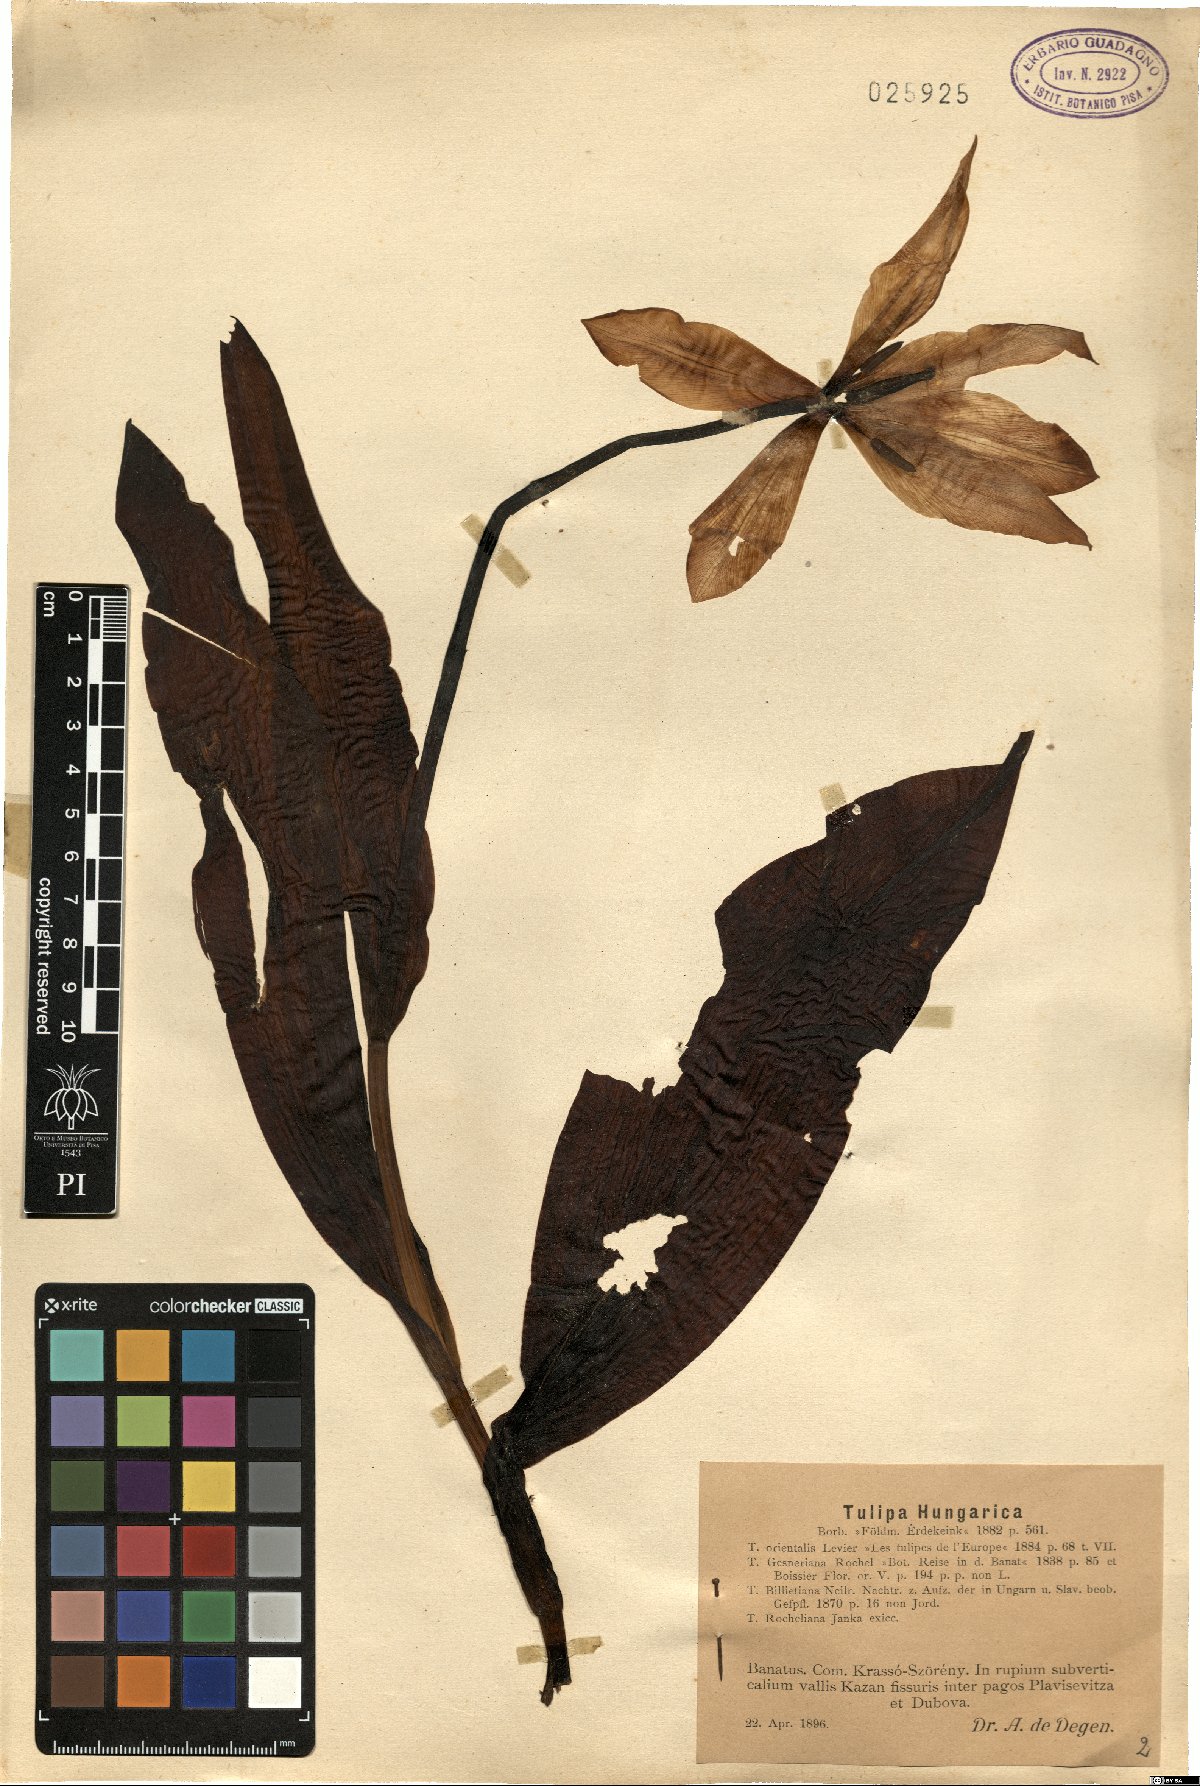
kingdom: Plantae
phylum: Tracheophyta
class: Liliopsida
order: Liliales
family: Liliaceae
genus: Tulipa
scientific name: Tulipa hungarica
